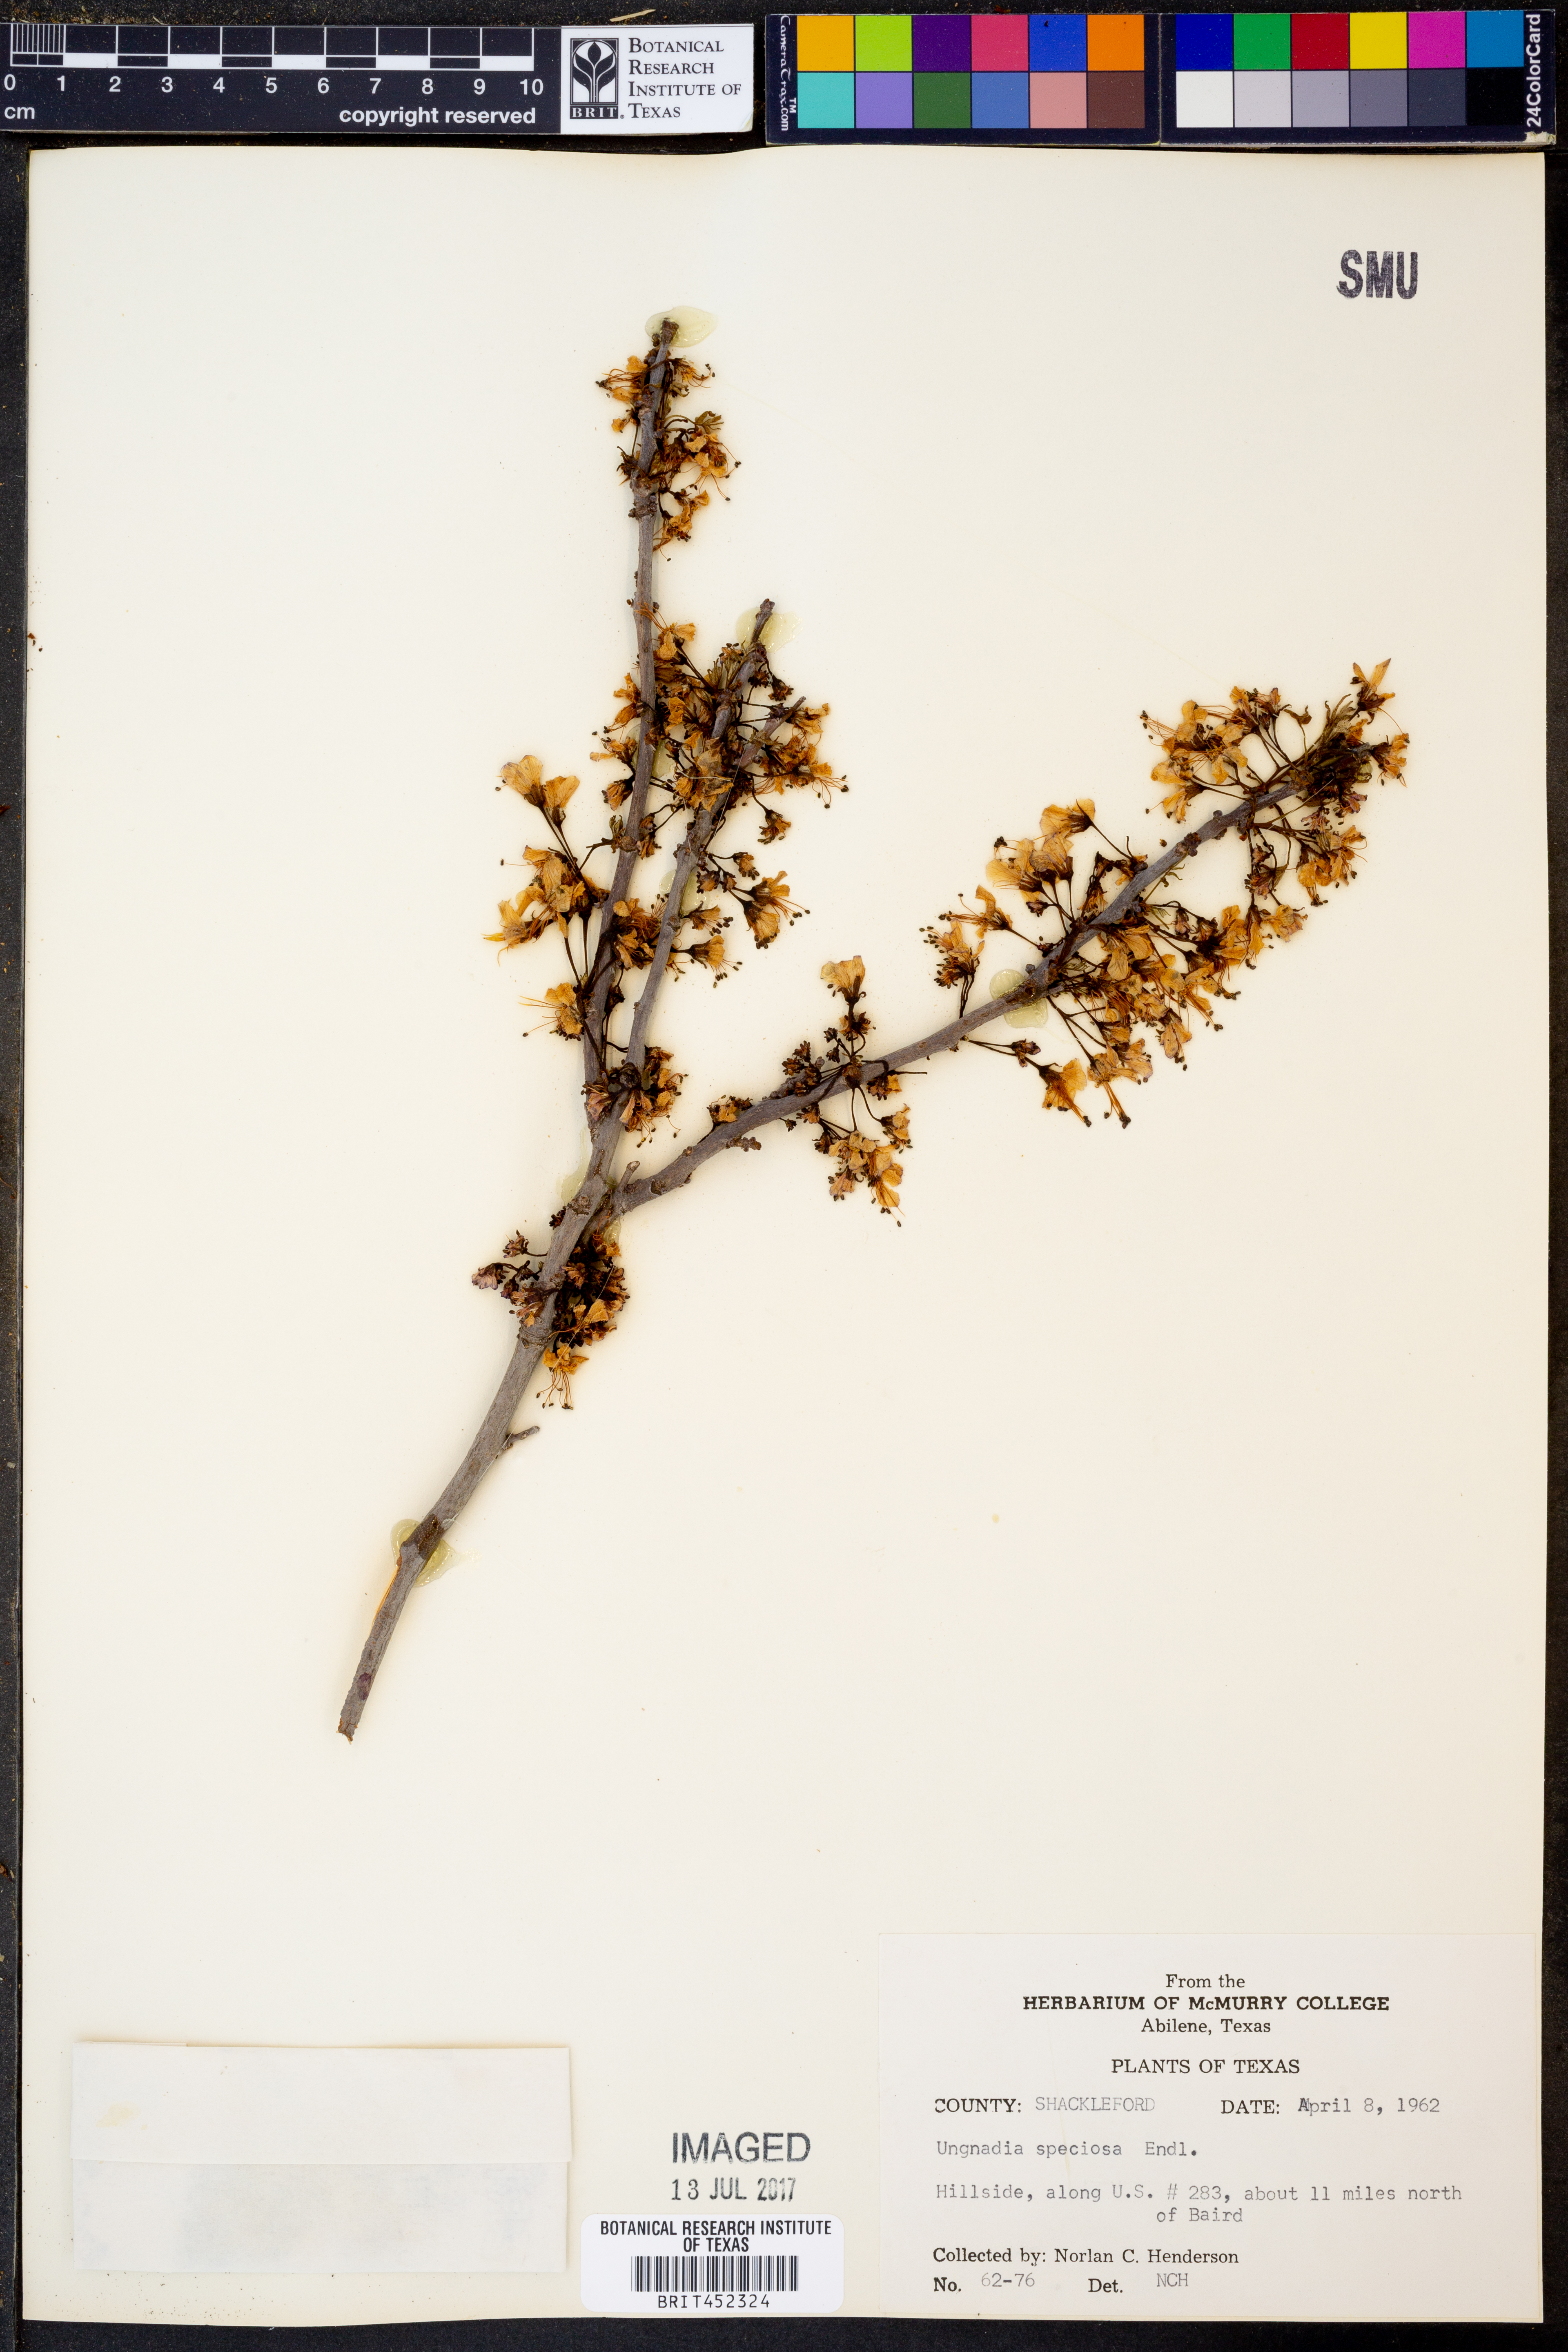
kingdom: Plantae
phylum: Tracheophyta
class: Magnoliopsida
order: Sapindales
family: Sapindaceae
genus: Ungnadia
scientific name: Ungnadia speciosa
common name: Texas-buckeye
